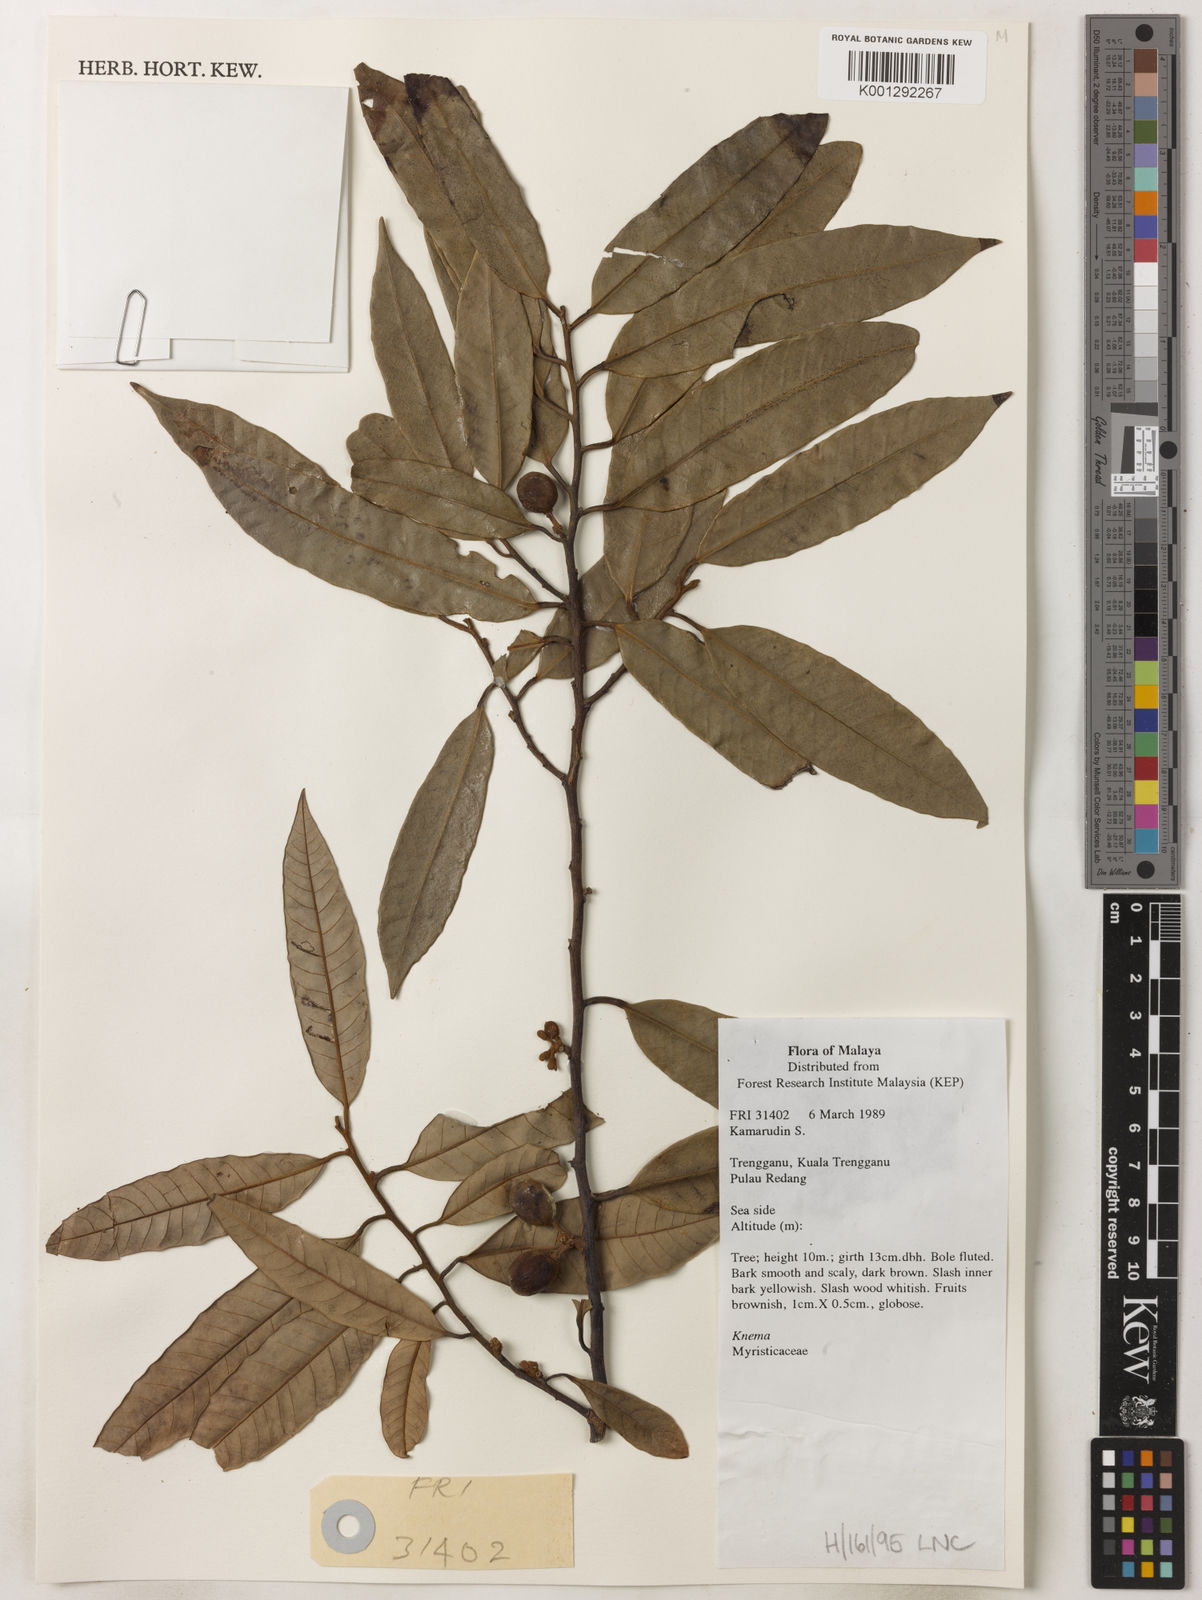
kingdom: Plantae
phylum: Tracheophyta
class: Magnoliopsida
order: Magnoliales
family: Myristicaceae
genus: Knema
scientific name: Knema
